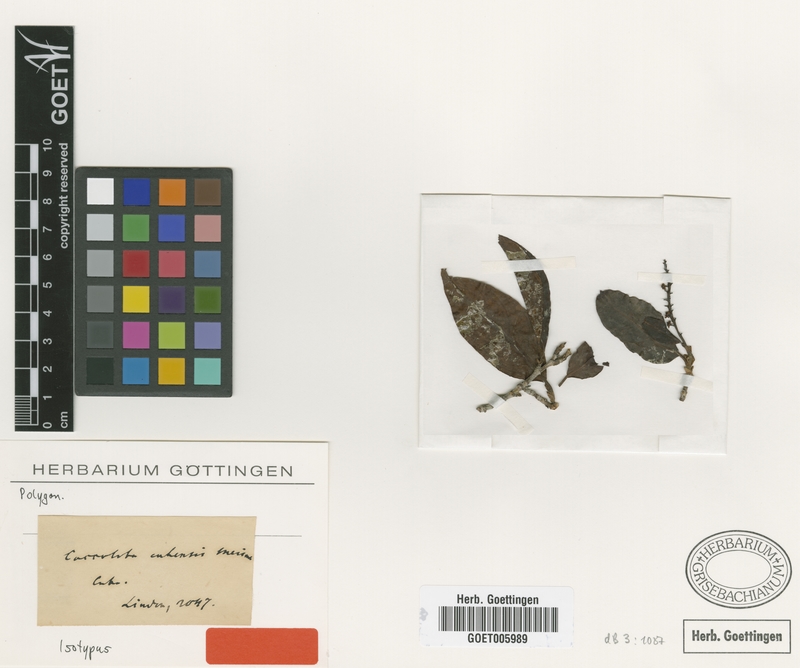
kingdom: Plantae
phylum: Tracheophyta
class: Magnoliopsida
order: Caryophyllales
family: Polygonaceae
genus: Coccoloba
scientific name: Coccoloba diversifolia
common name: Pigeon-plum
